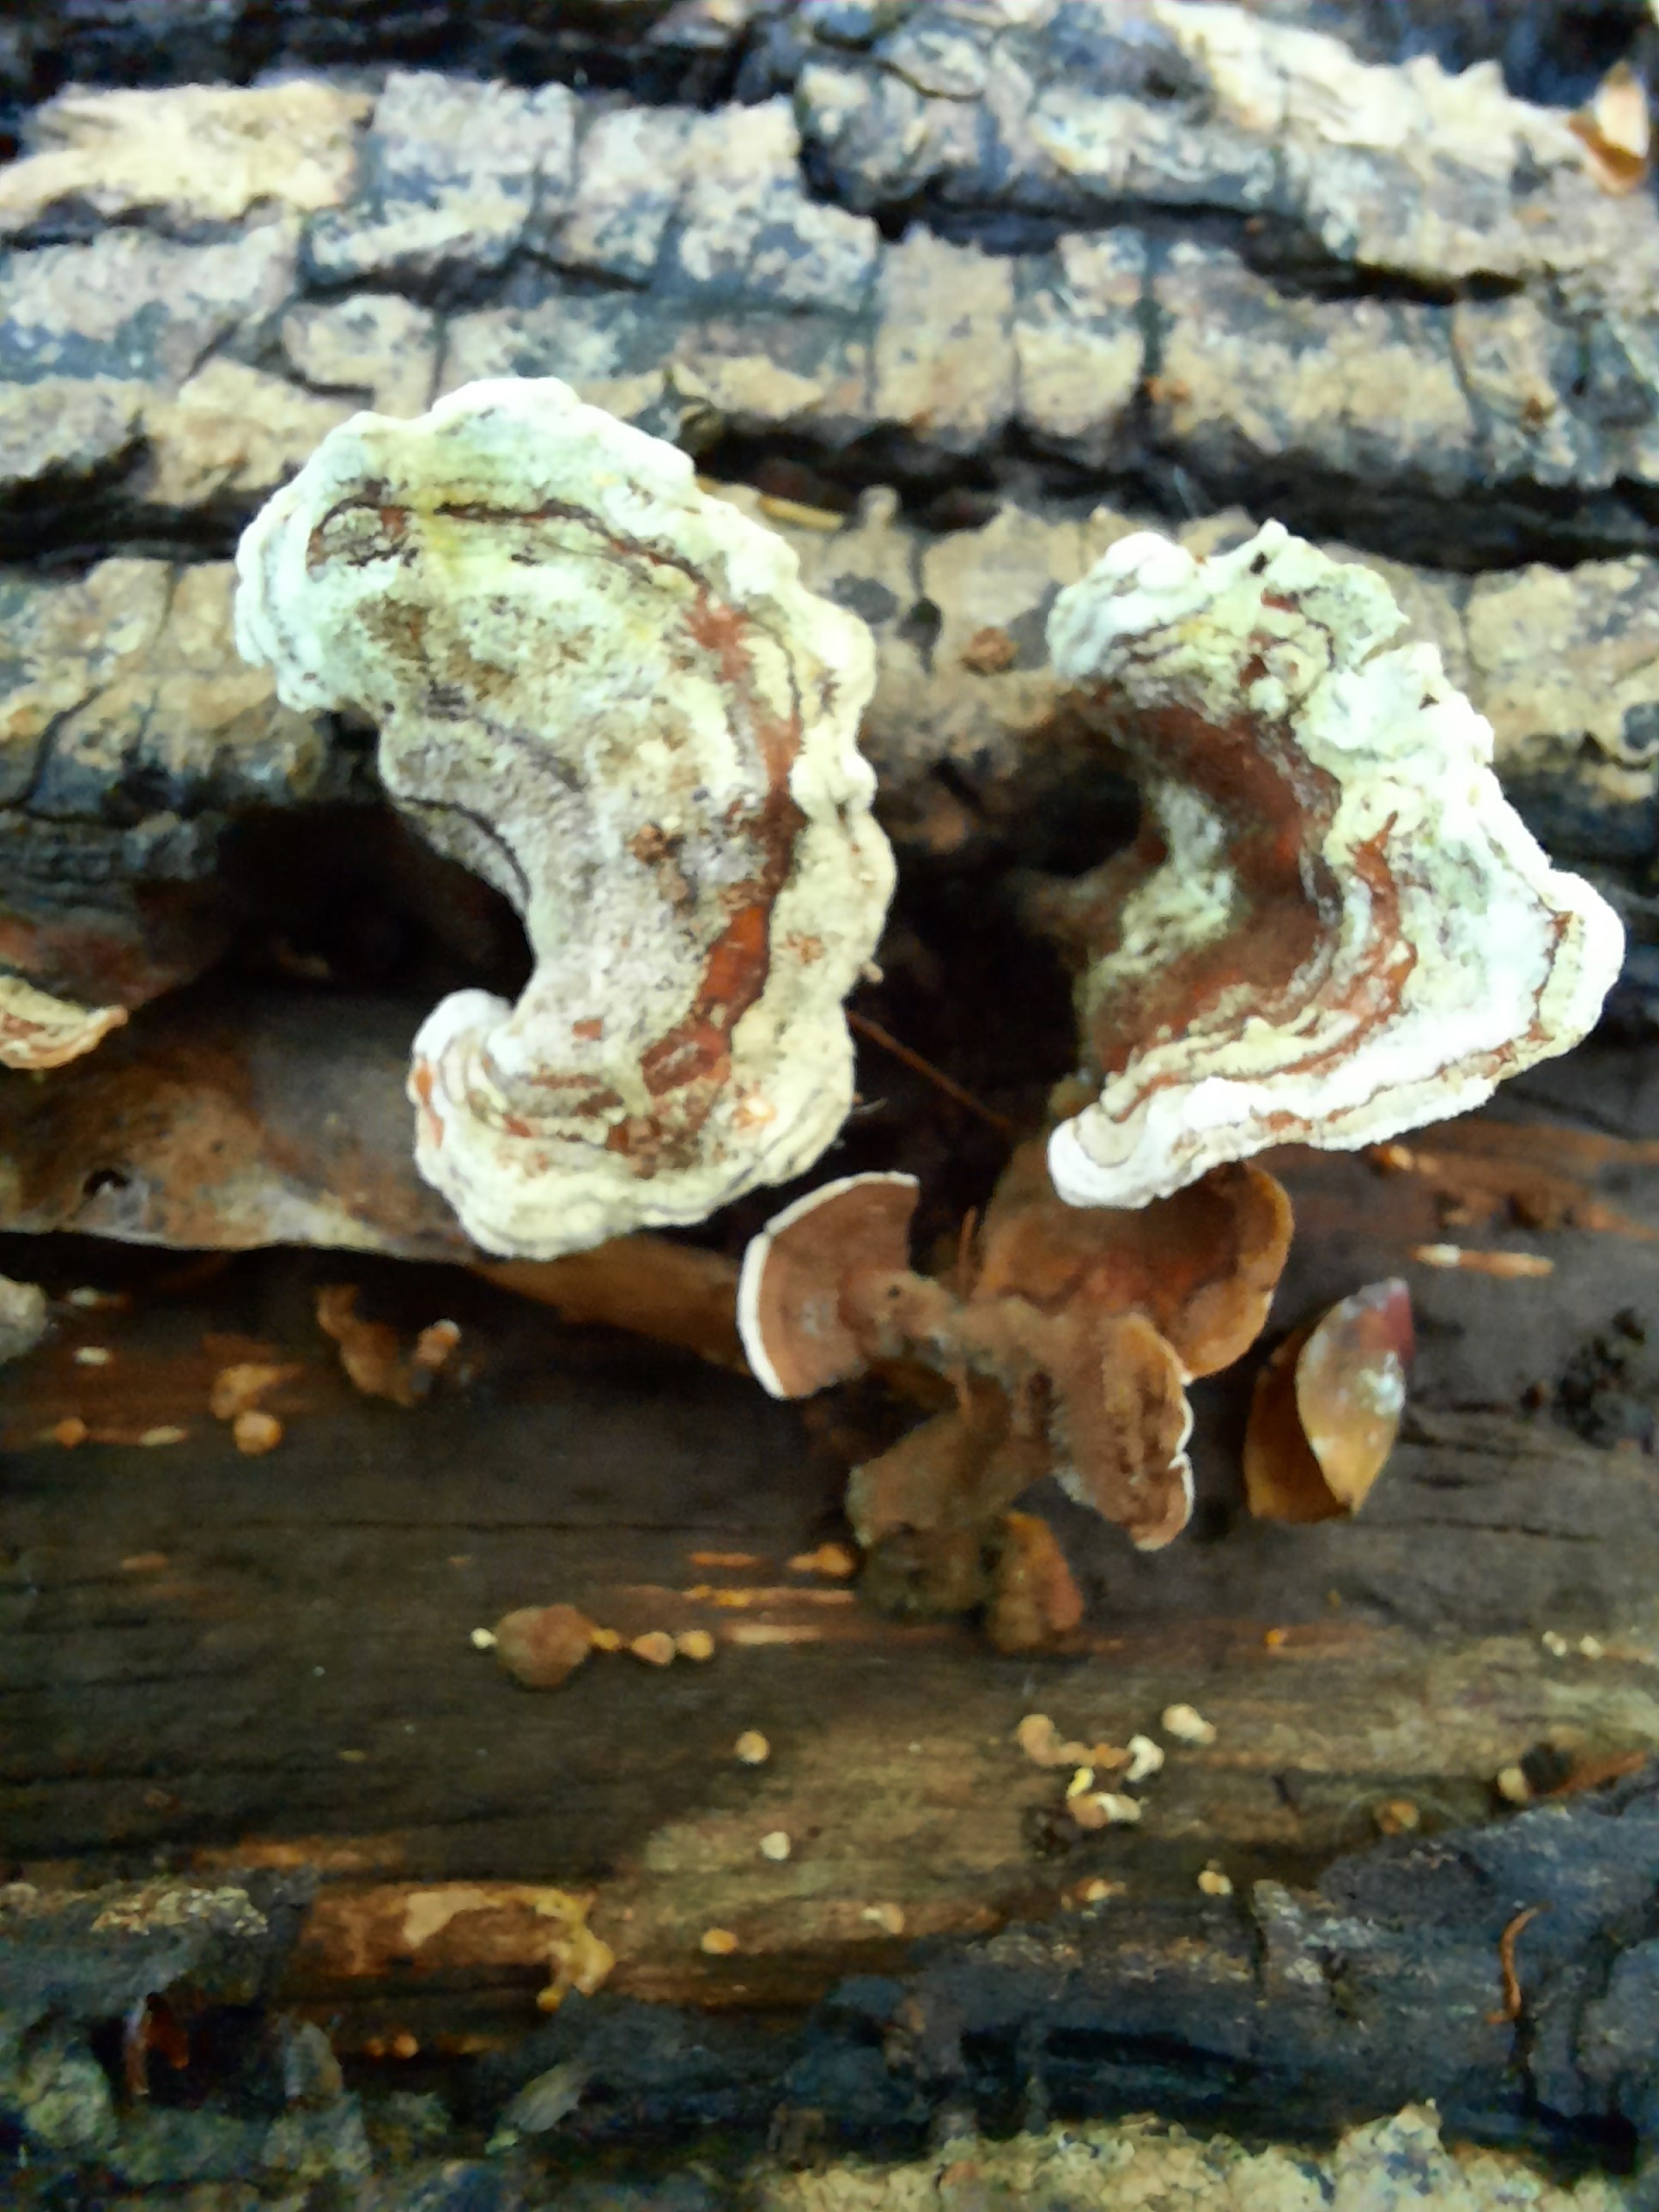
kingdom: Fungi
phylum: Basidiomycota
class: Agaricomycetes
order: Russulales
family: Stereaceae
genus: Stereum
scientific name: Stereum subtomentosum
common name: smuk lædersvamp
